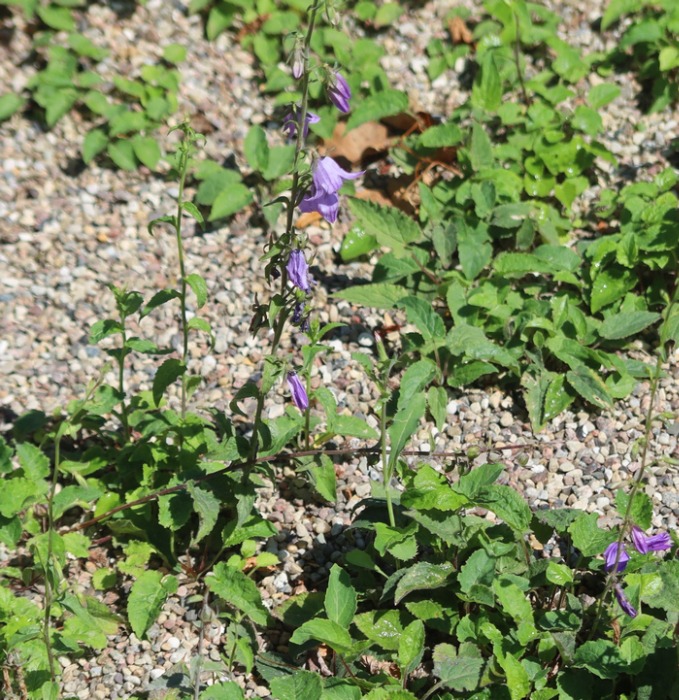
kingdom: Plantae
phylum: Tracheophyta
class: Magnoliopsida
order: Asterales
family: Campanulaceae
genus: Campanula
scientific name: Campanula rapunculoides
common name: Ensidig klokke
